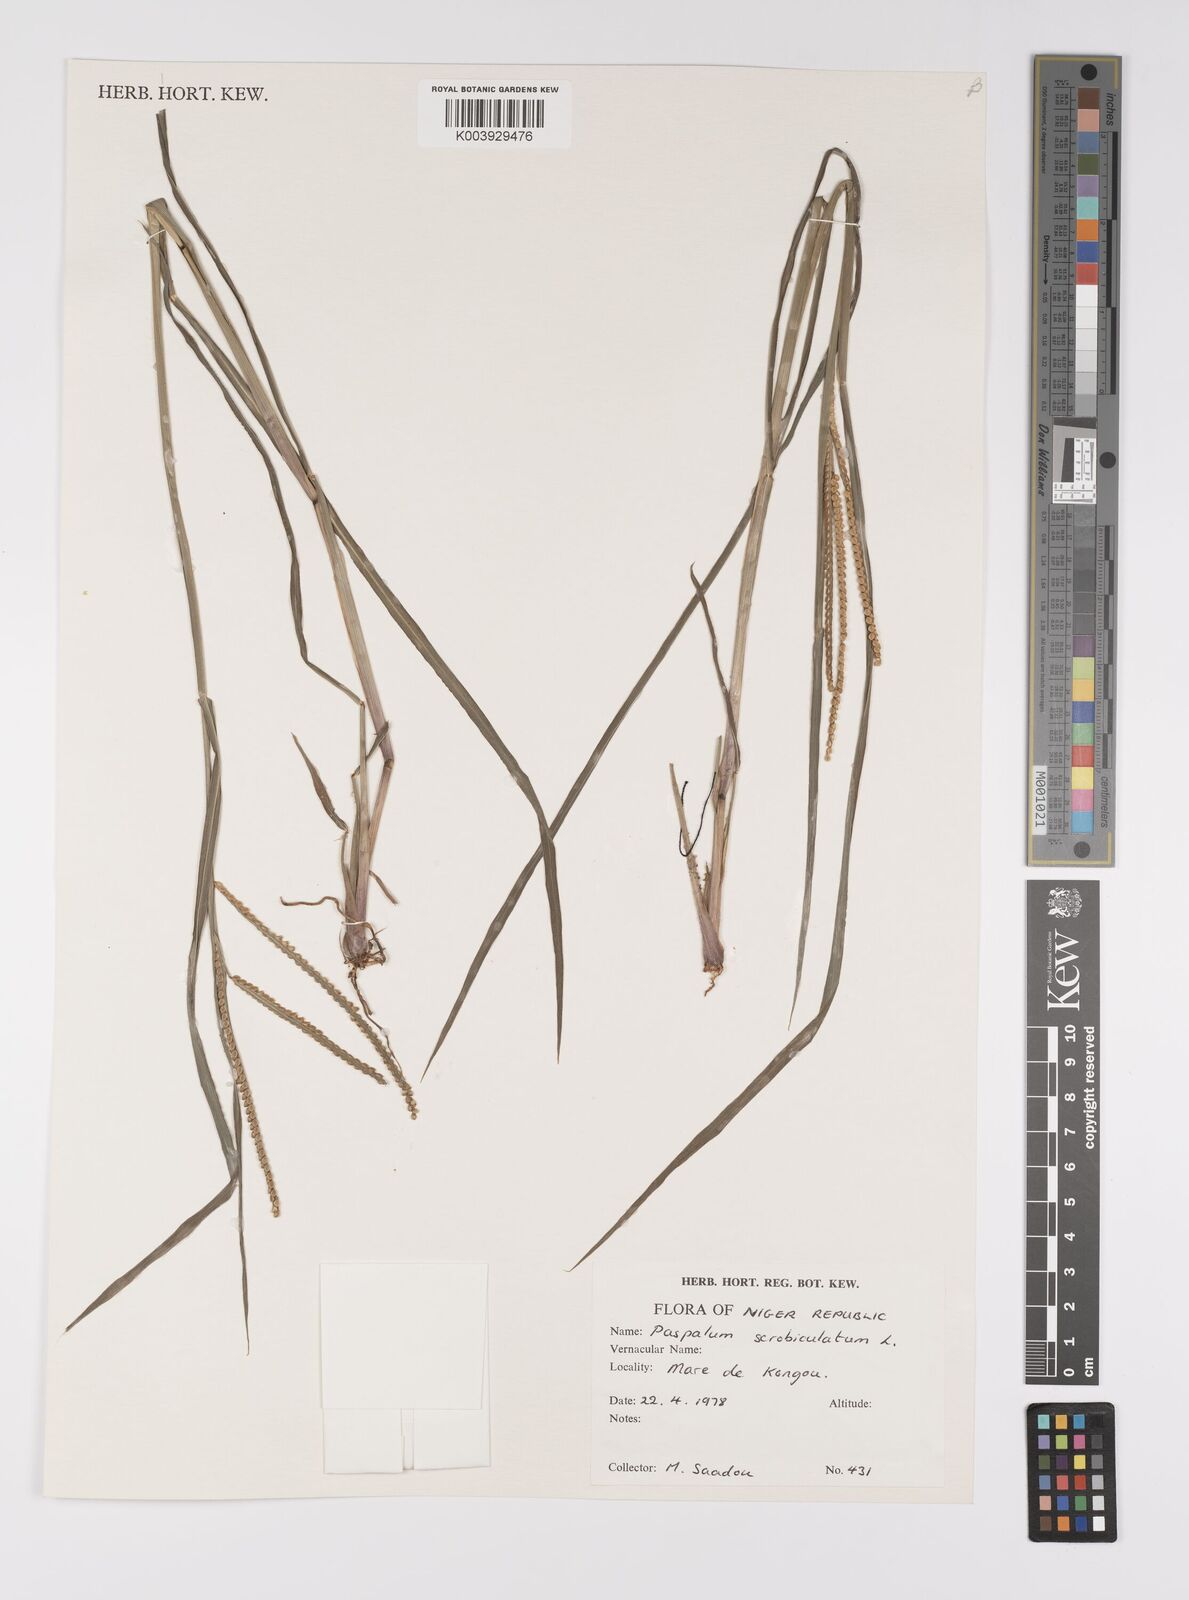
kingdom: Plantae
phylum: Tracheophyta
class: Liliopsida
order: Poales
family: Poaceae
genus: Paspalum
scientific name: Paspalum scrobiculatum
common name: Kodo millet
